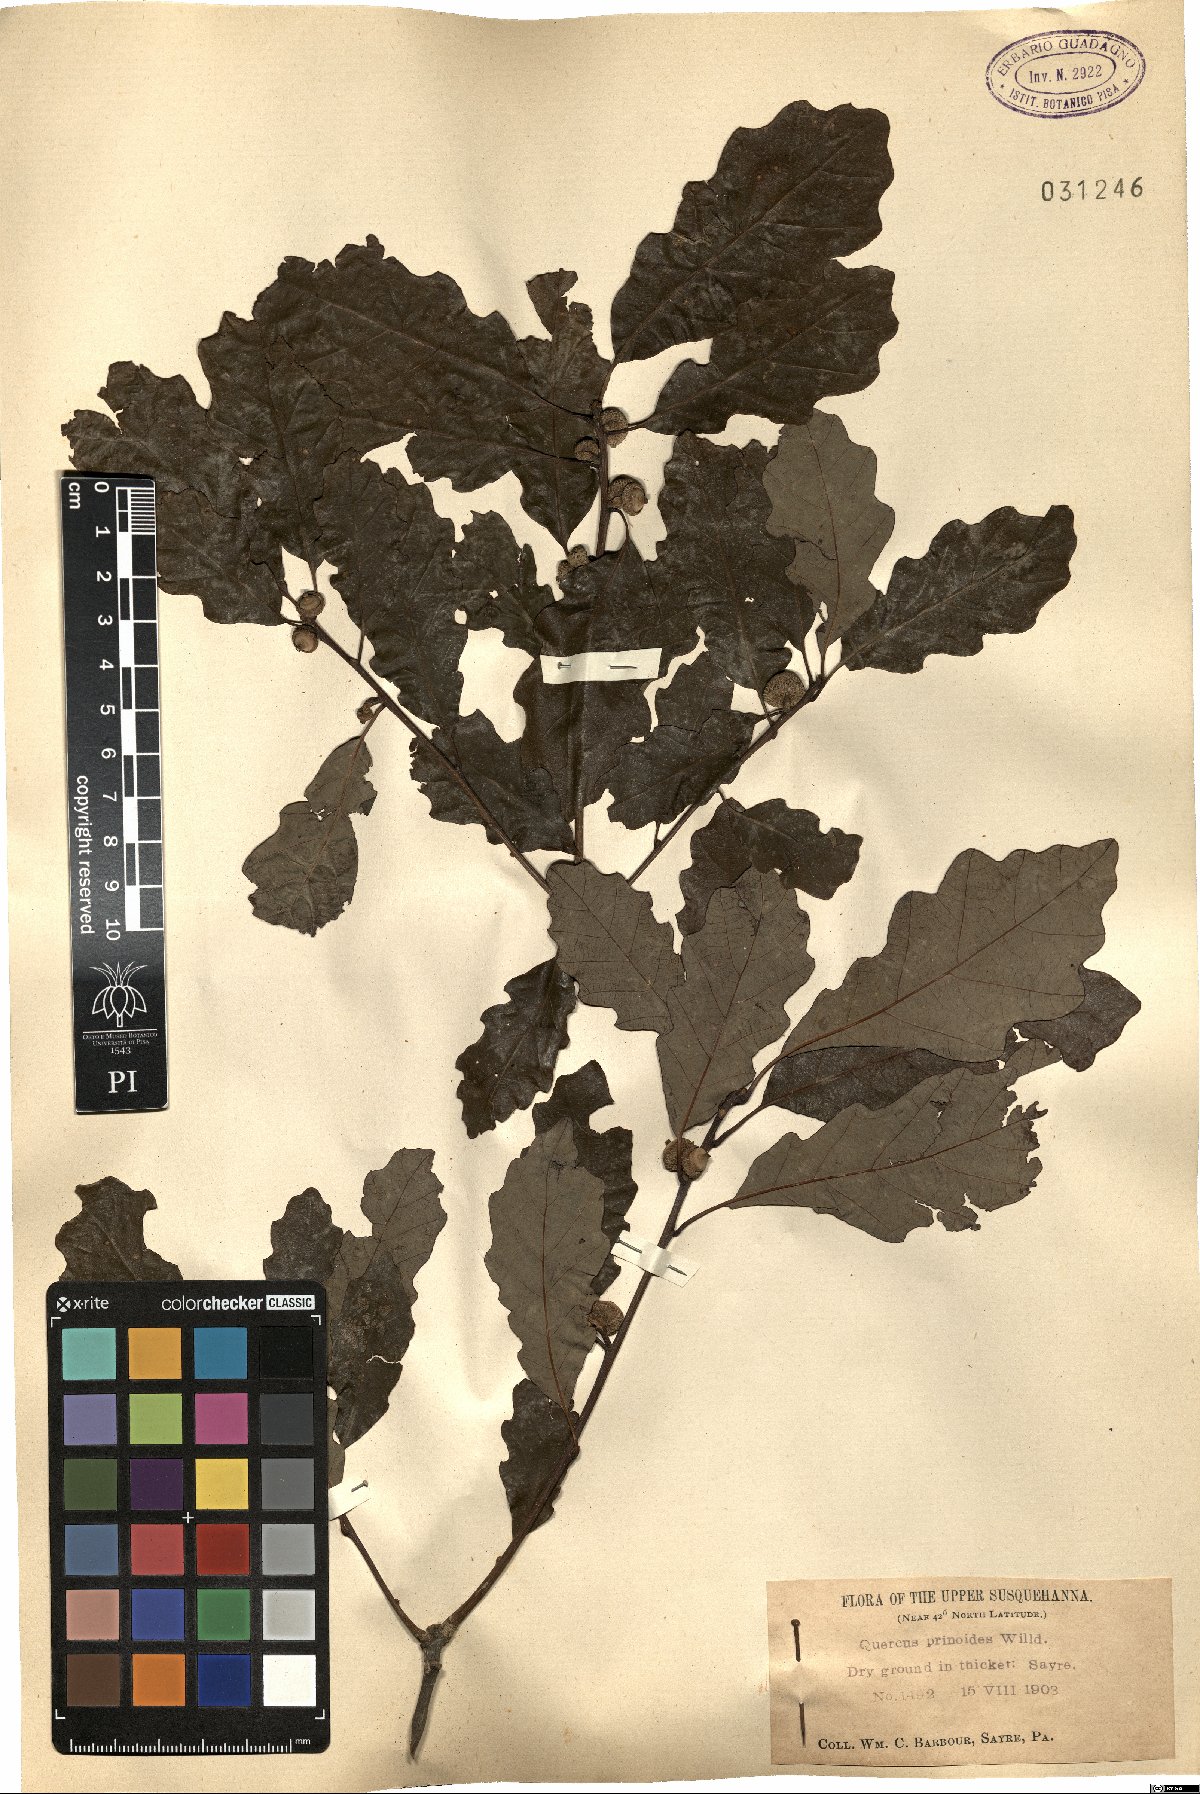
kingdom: Plantae
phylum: Tracheophyta
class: Magnoliopsida
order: Fagales
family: Fagaceae
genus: Quercus
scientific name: Quercus prinoides
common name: Dwarf chinkapin oak
